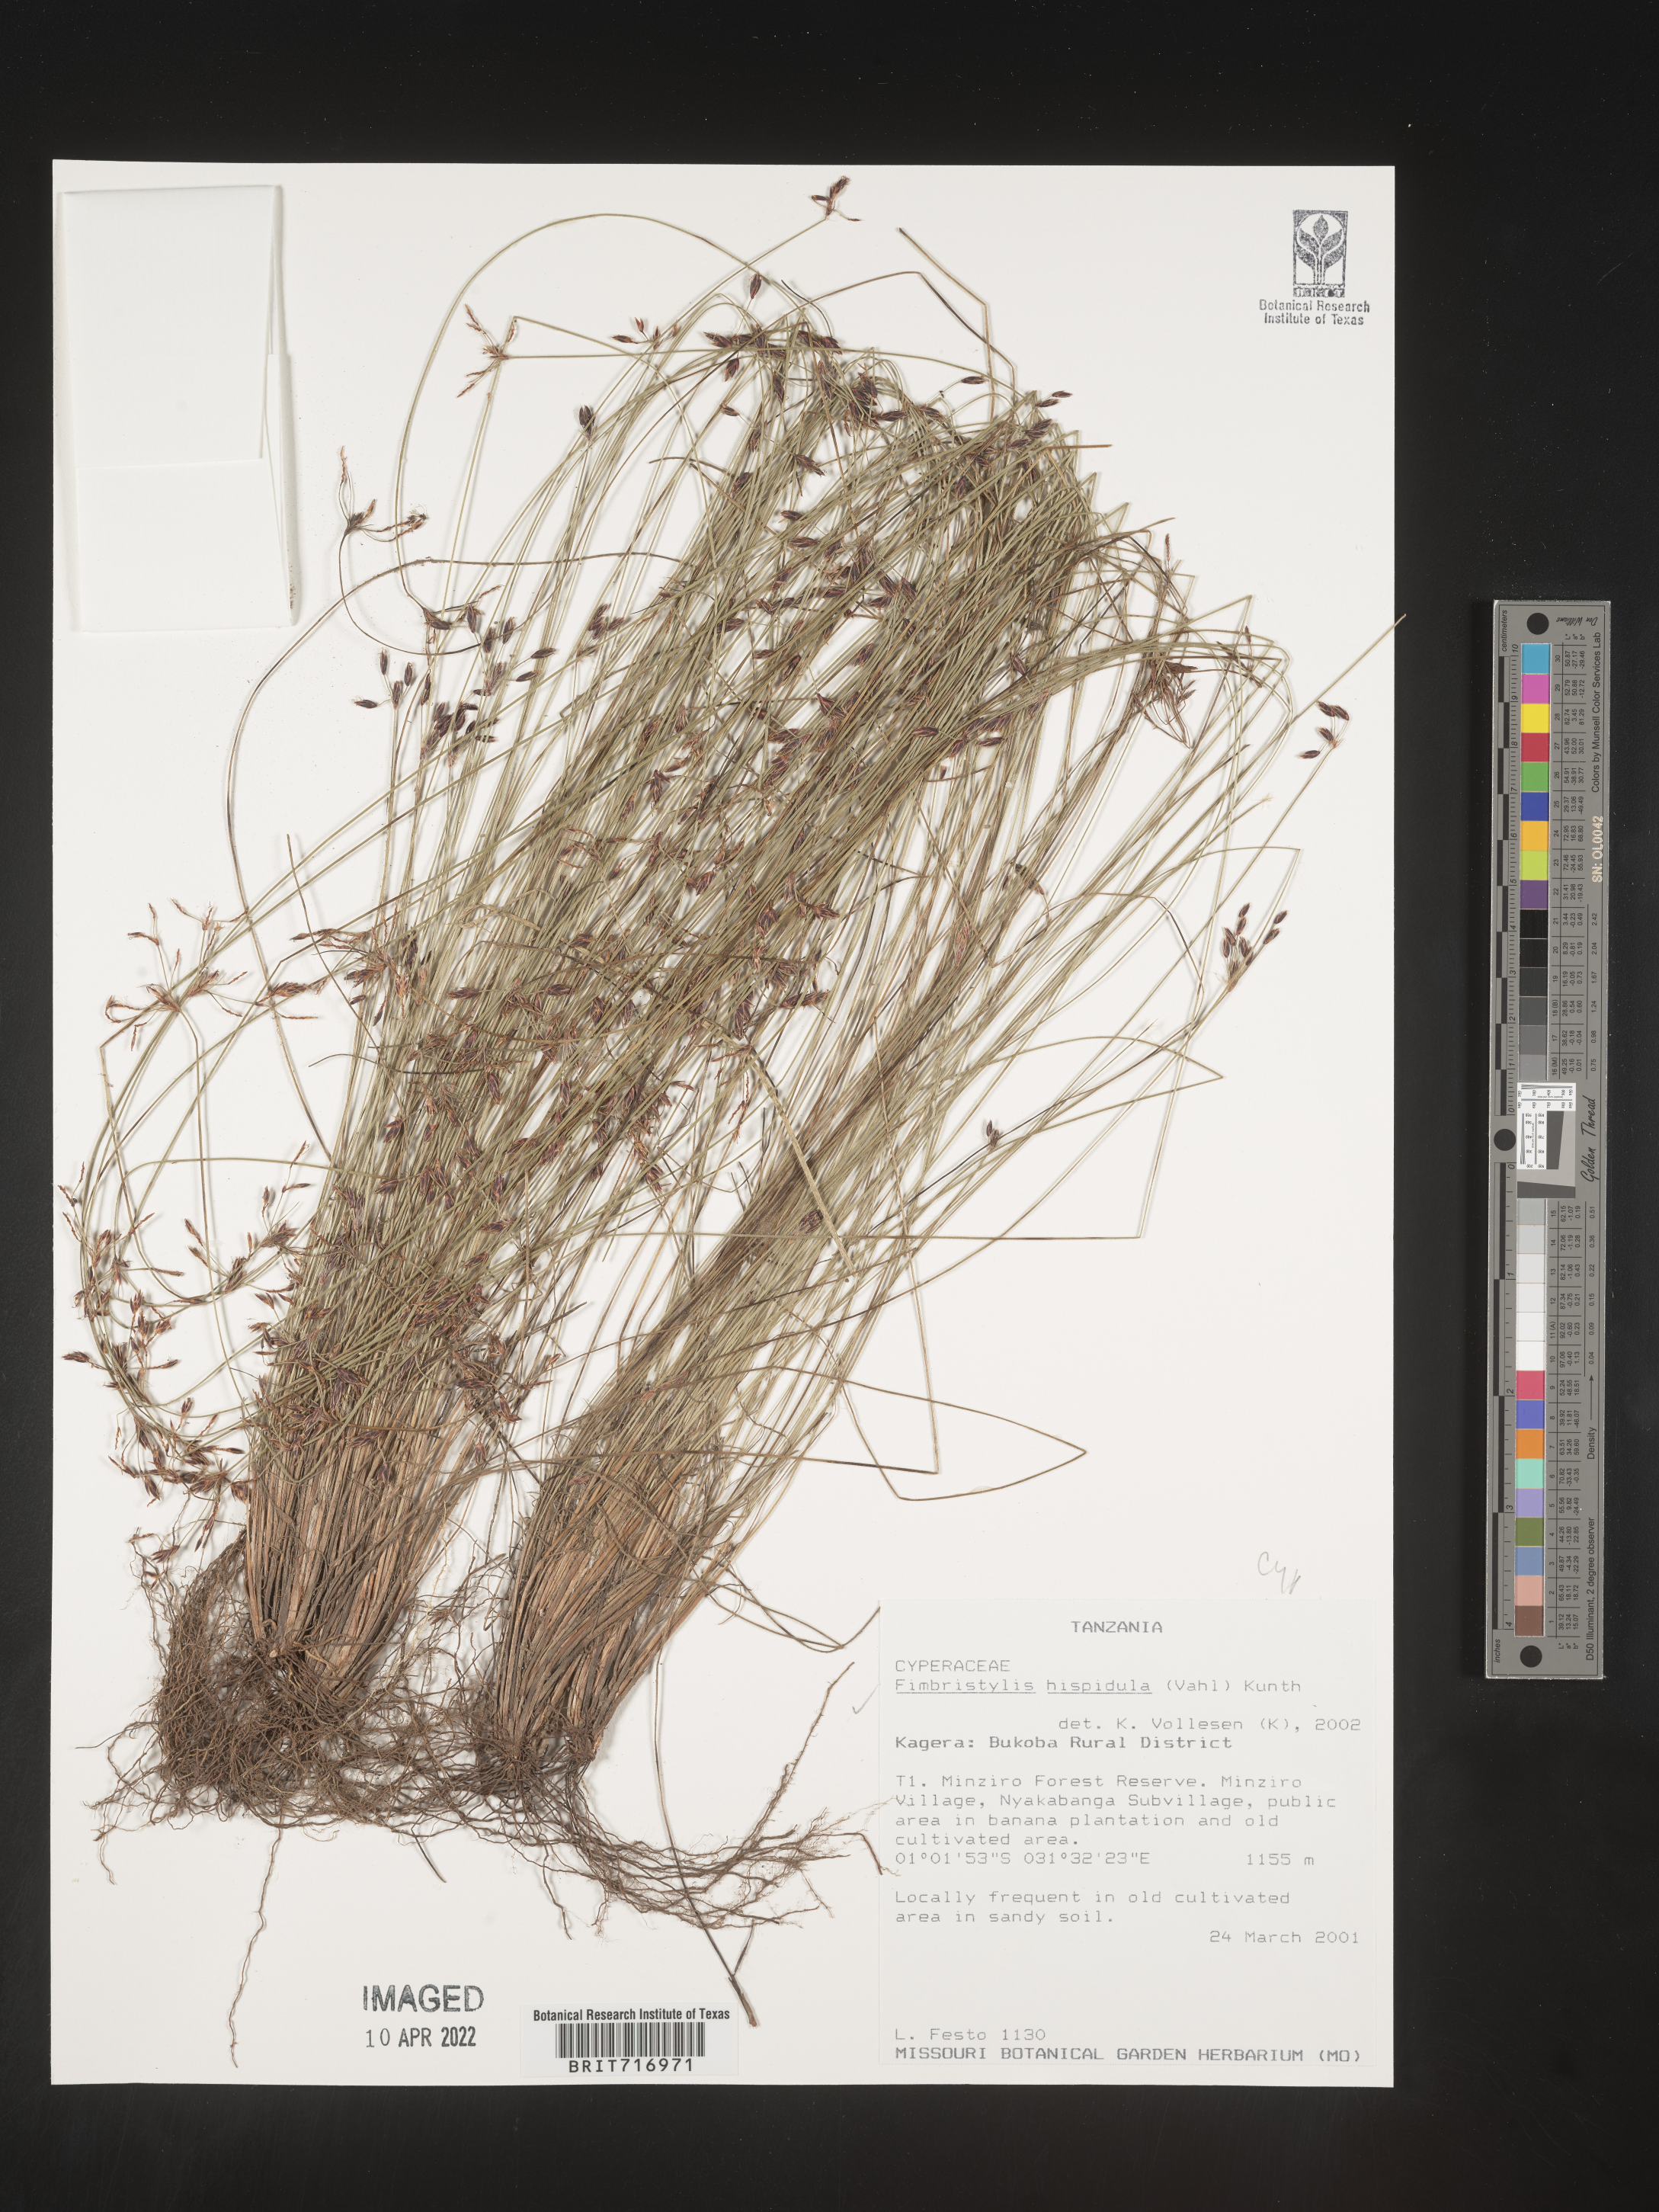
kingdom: Plantae
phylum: Tracheophyta
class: Liliopsida
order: Poales
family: Cyperaceae
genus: Fimbristylis
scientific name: Fimbristylis
